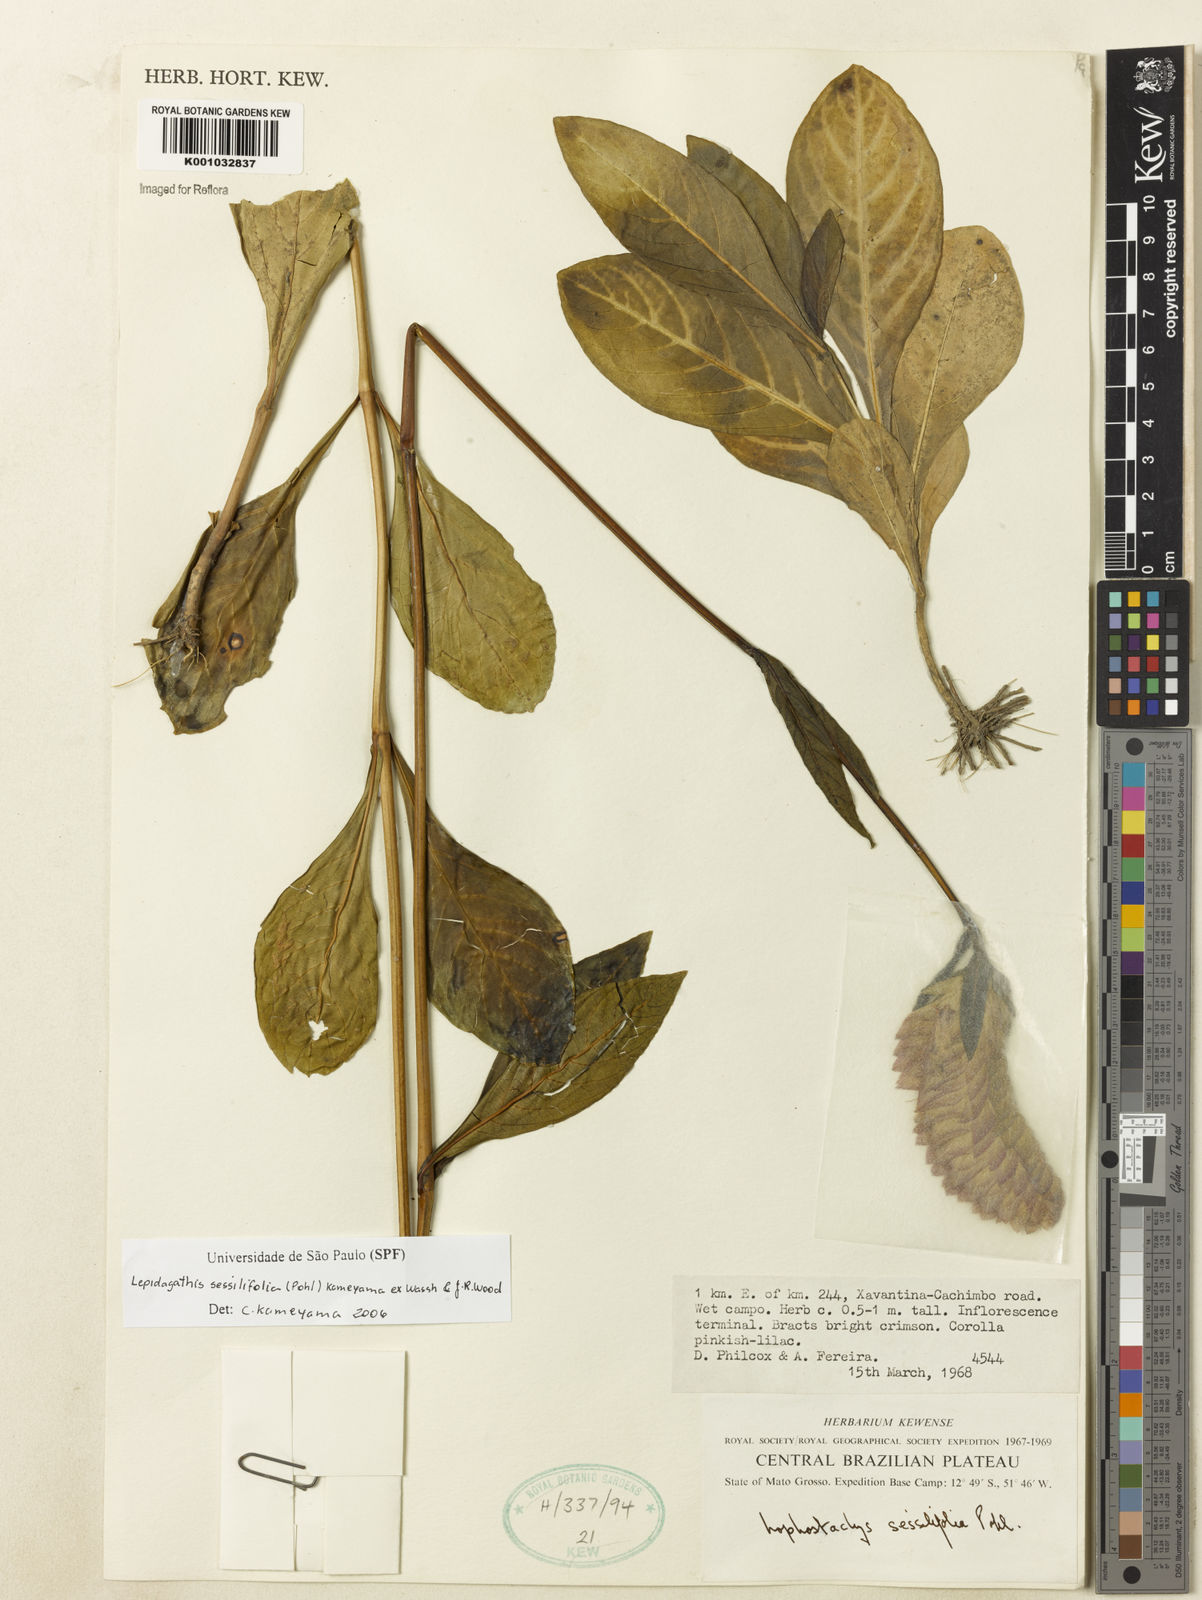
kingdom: Plantae
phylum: Tracheophyta
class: Magnoliopsida
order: Lamiales
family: Acanthaceae
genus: Lepidagathis
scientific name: Lepidagathis sessilifolia
